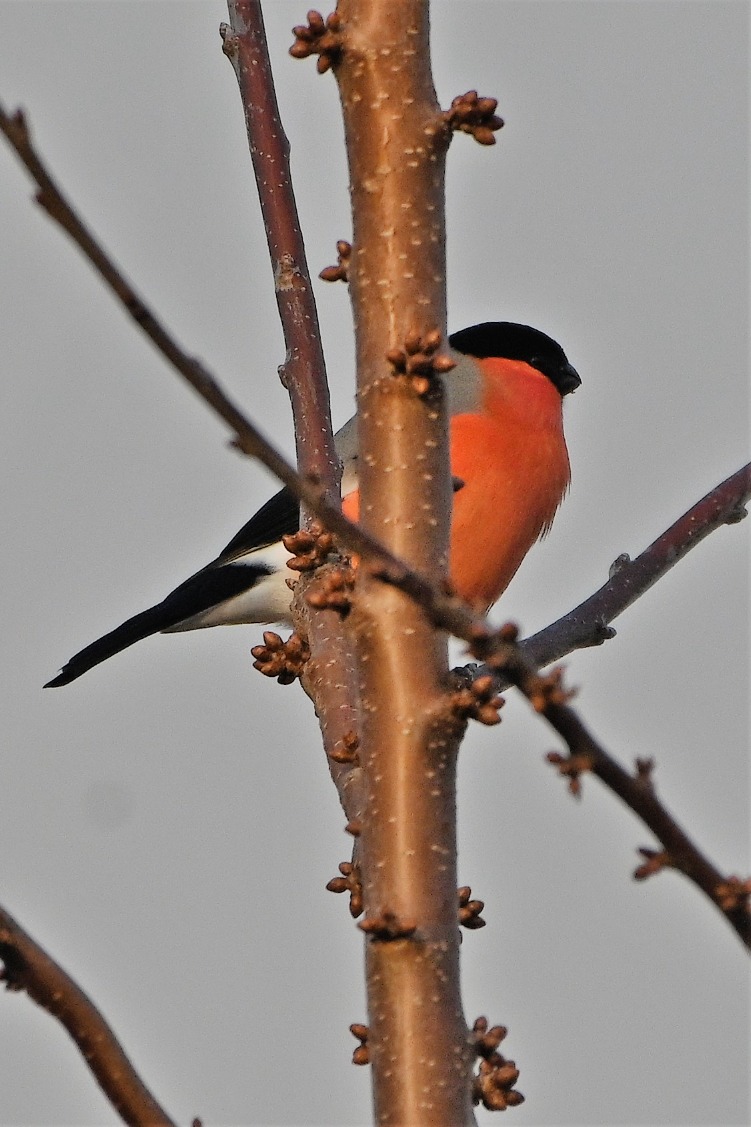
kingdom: Animalia
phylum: Chordata
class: Aves
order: Passeriformes
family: Fringillidae
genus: Pyrrhula
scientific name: Pyrrhula pyrrhula
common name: Dompap
